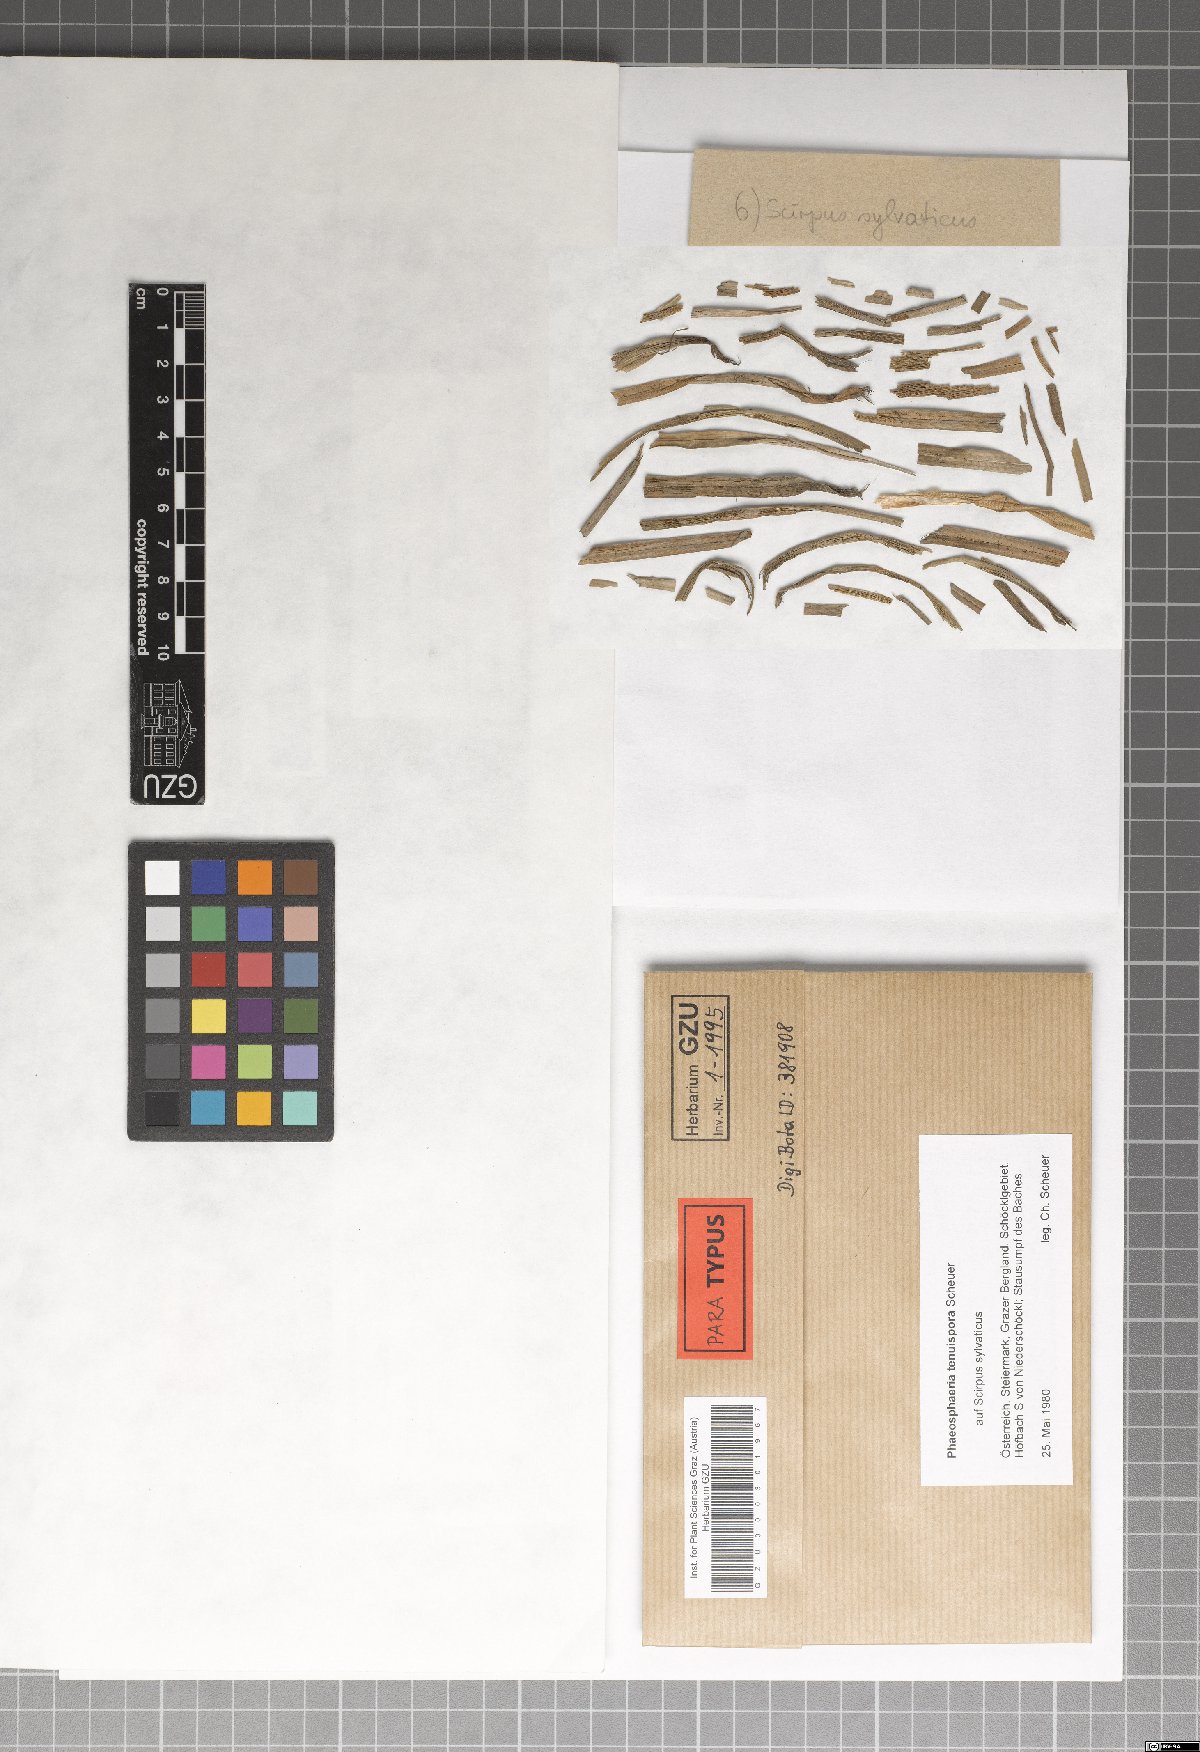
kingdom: Fungi
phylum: Ascomycota
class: Dothideomycetes
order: Pleosporales
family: Phaeosphaeriaceae
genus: Phaeosphaeria
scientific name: Phaeosphaeria tenuispora
